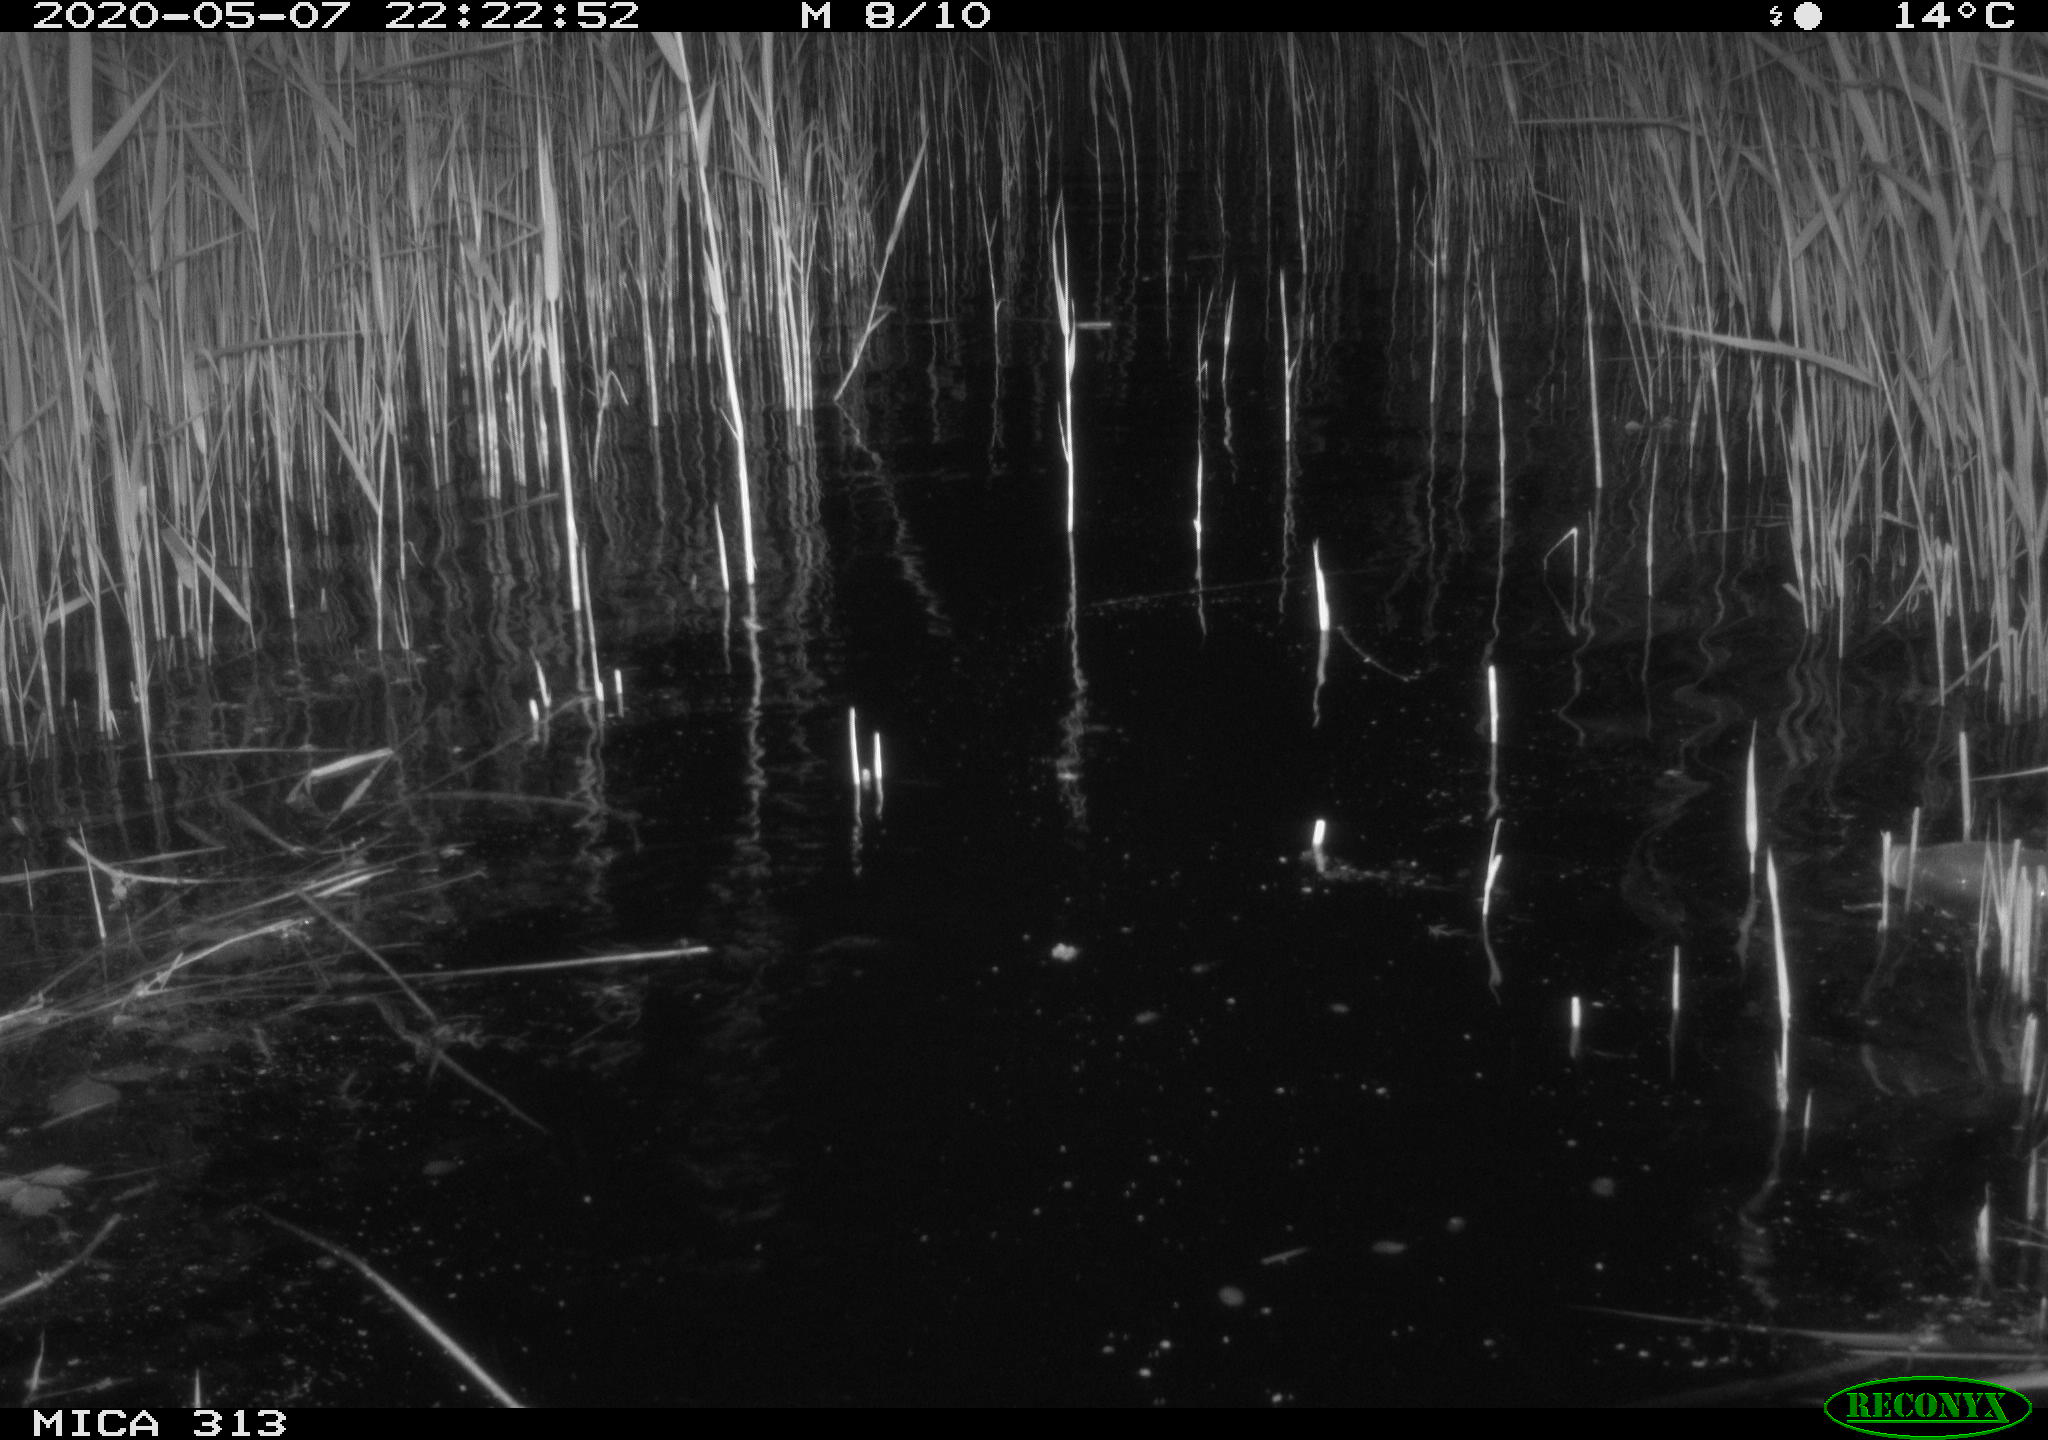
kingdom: Animalia
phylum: Chordata
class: Aves
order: Anseriformes
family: Anatidae
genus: Anas
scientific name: Anas platyrhynchos
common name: Mallard
